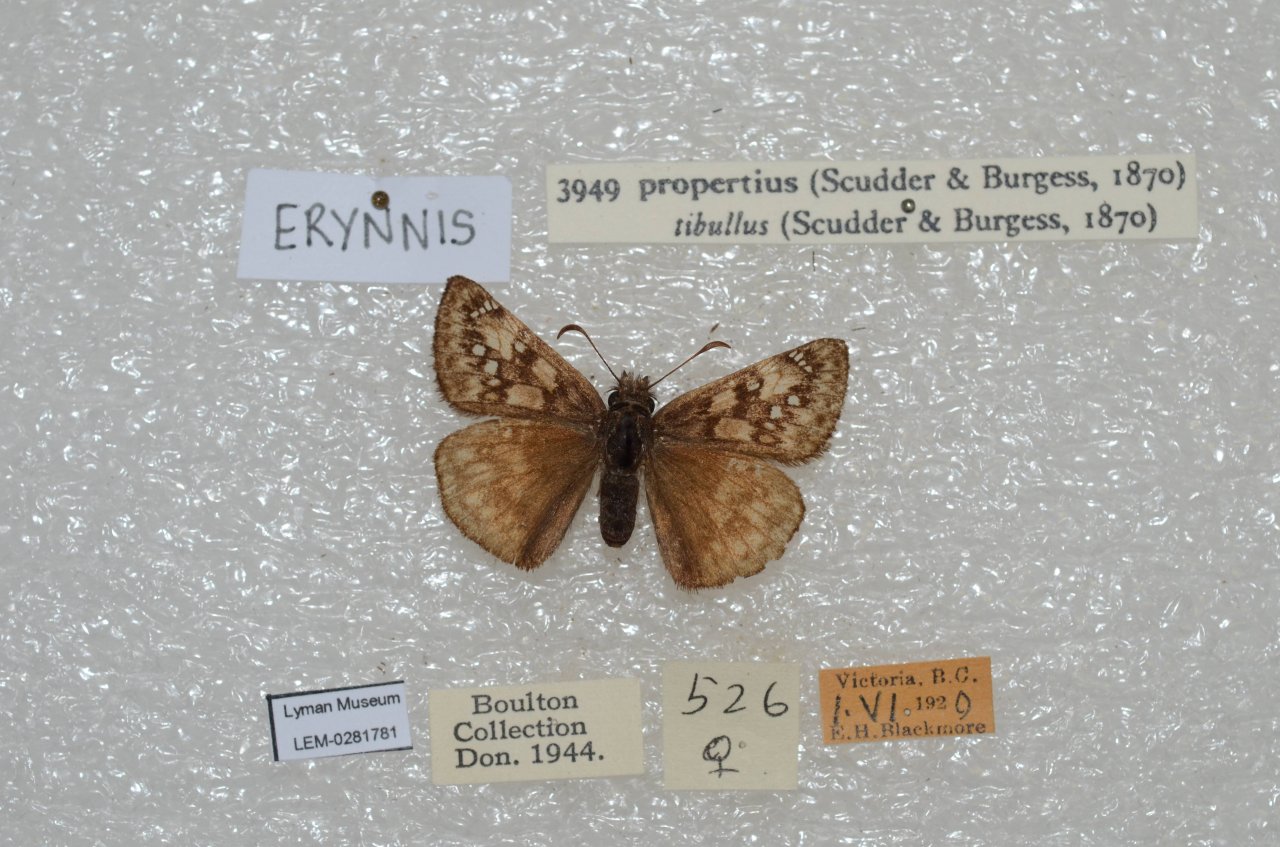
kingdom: Animalia
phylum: Arthropoda
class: Insecta
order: Lepidoptera
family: Hesperiidae
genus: Erynnis
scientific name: Erynnis propertius
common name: Propertius Duskywing
